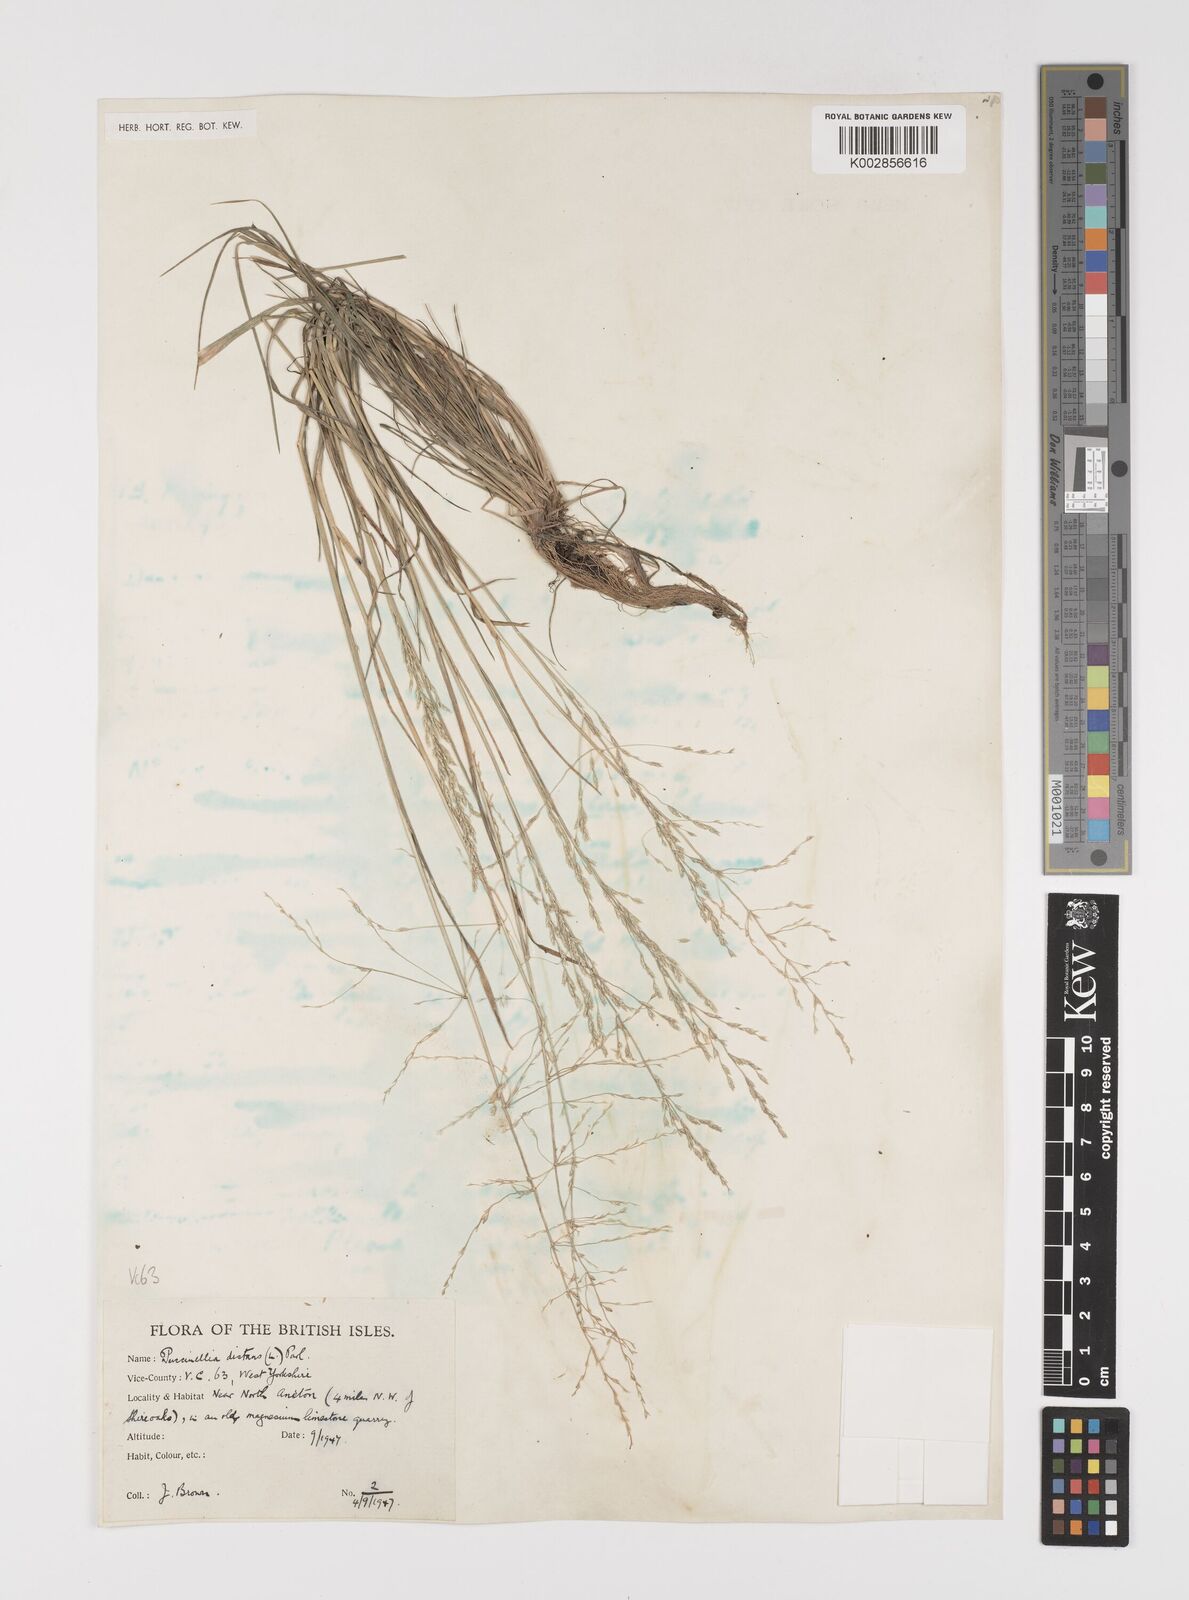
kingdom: Plantae
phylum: Tracheophyta
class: Liliopsida
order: Poales
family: Poaceae
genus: Puccinellia
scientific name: Puccinellia distans
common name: Weeping alkaligrass
